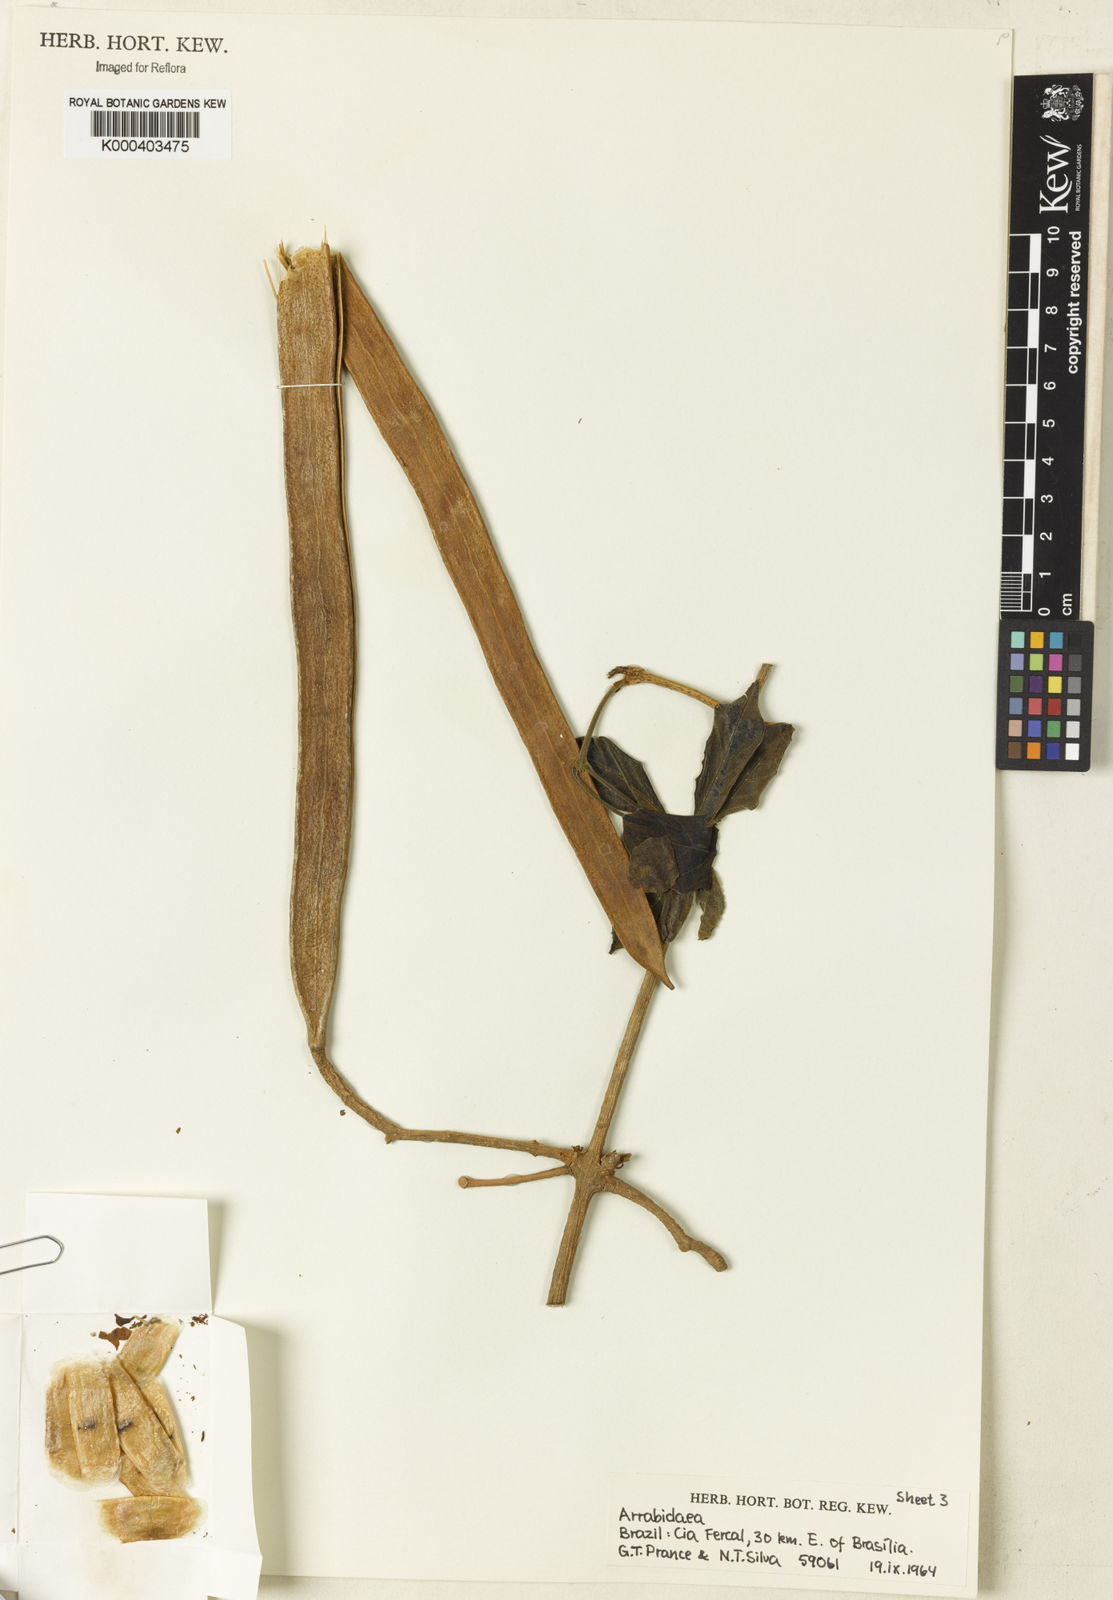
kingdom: Plantae
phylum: Tracheophyta
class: Magnoliopsida
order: Rosales
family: Rhamnaceae
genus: Arrabidaea
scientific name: Arrabidaea
